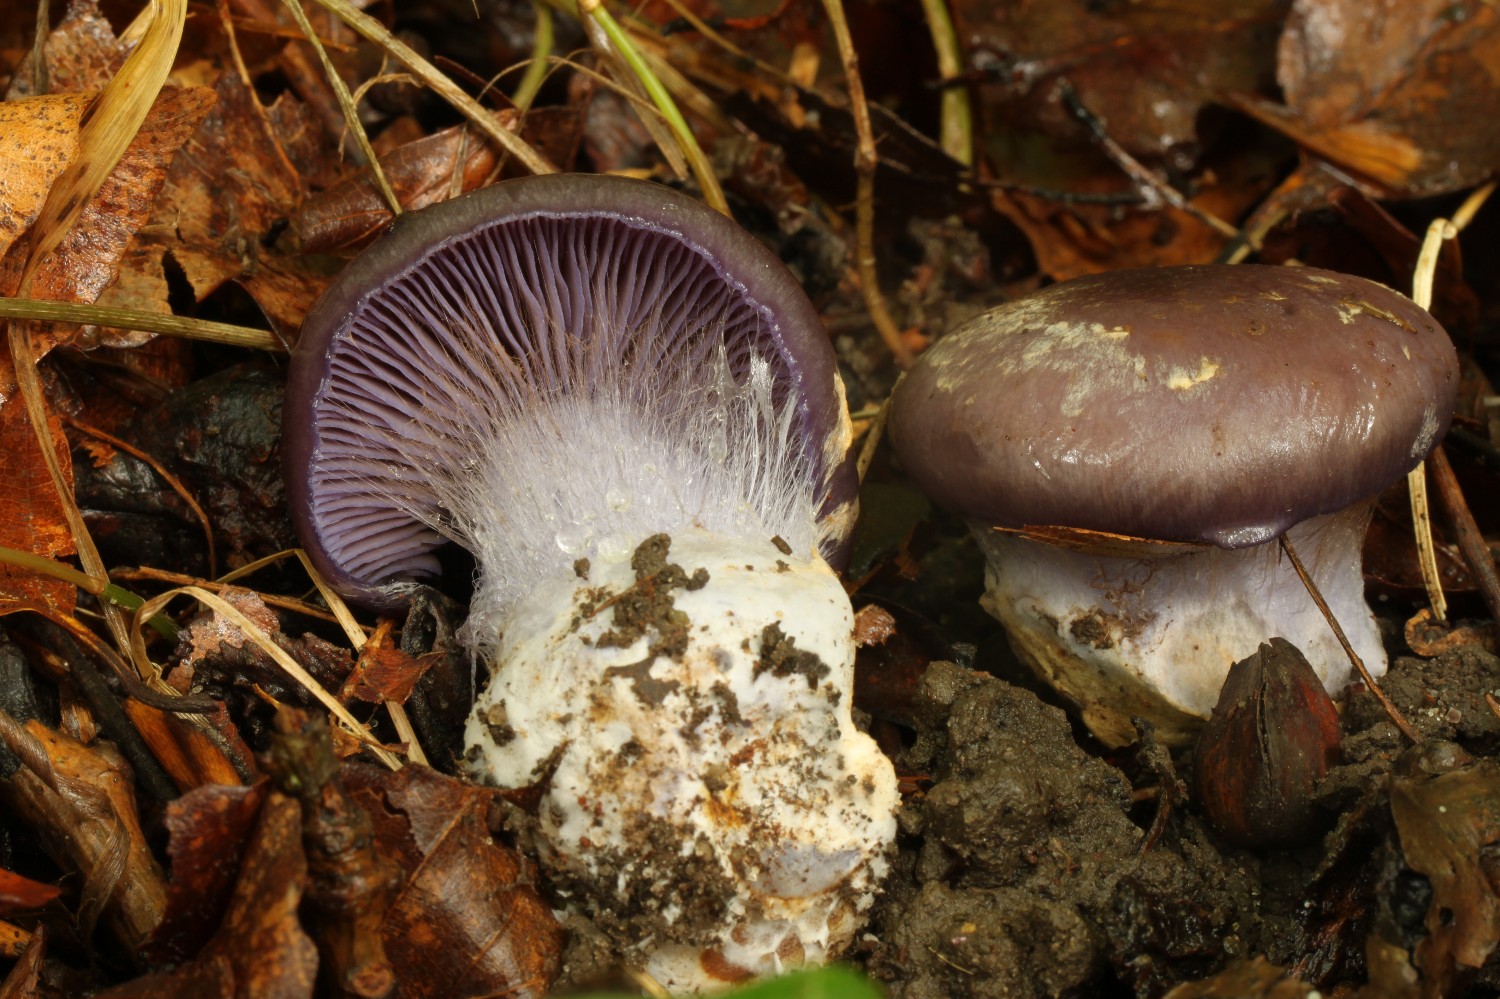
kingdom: Fungi
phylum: Basidiomycota
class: Agaricomycetes
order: Agaricales
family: Cortinariaceae
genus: Phlegmacium
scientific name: Phlegmacium viridocoeruleum
